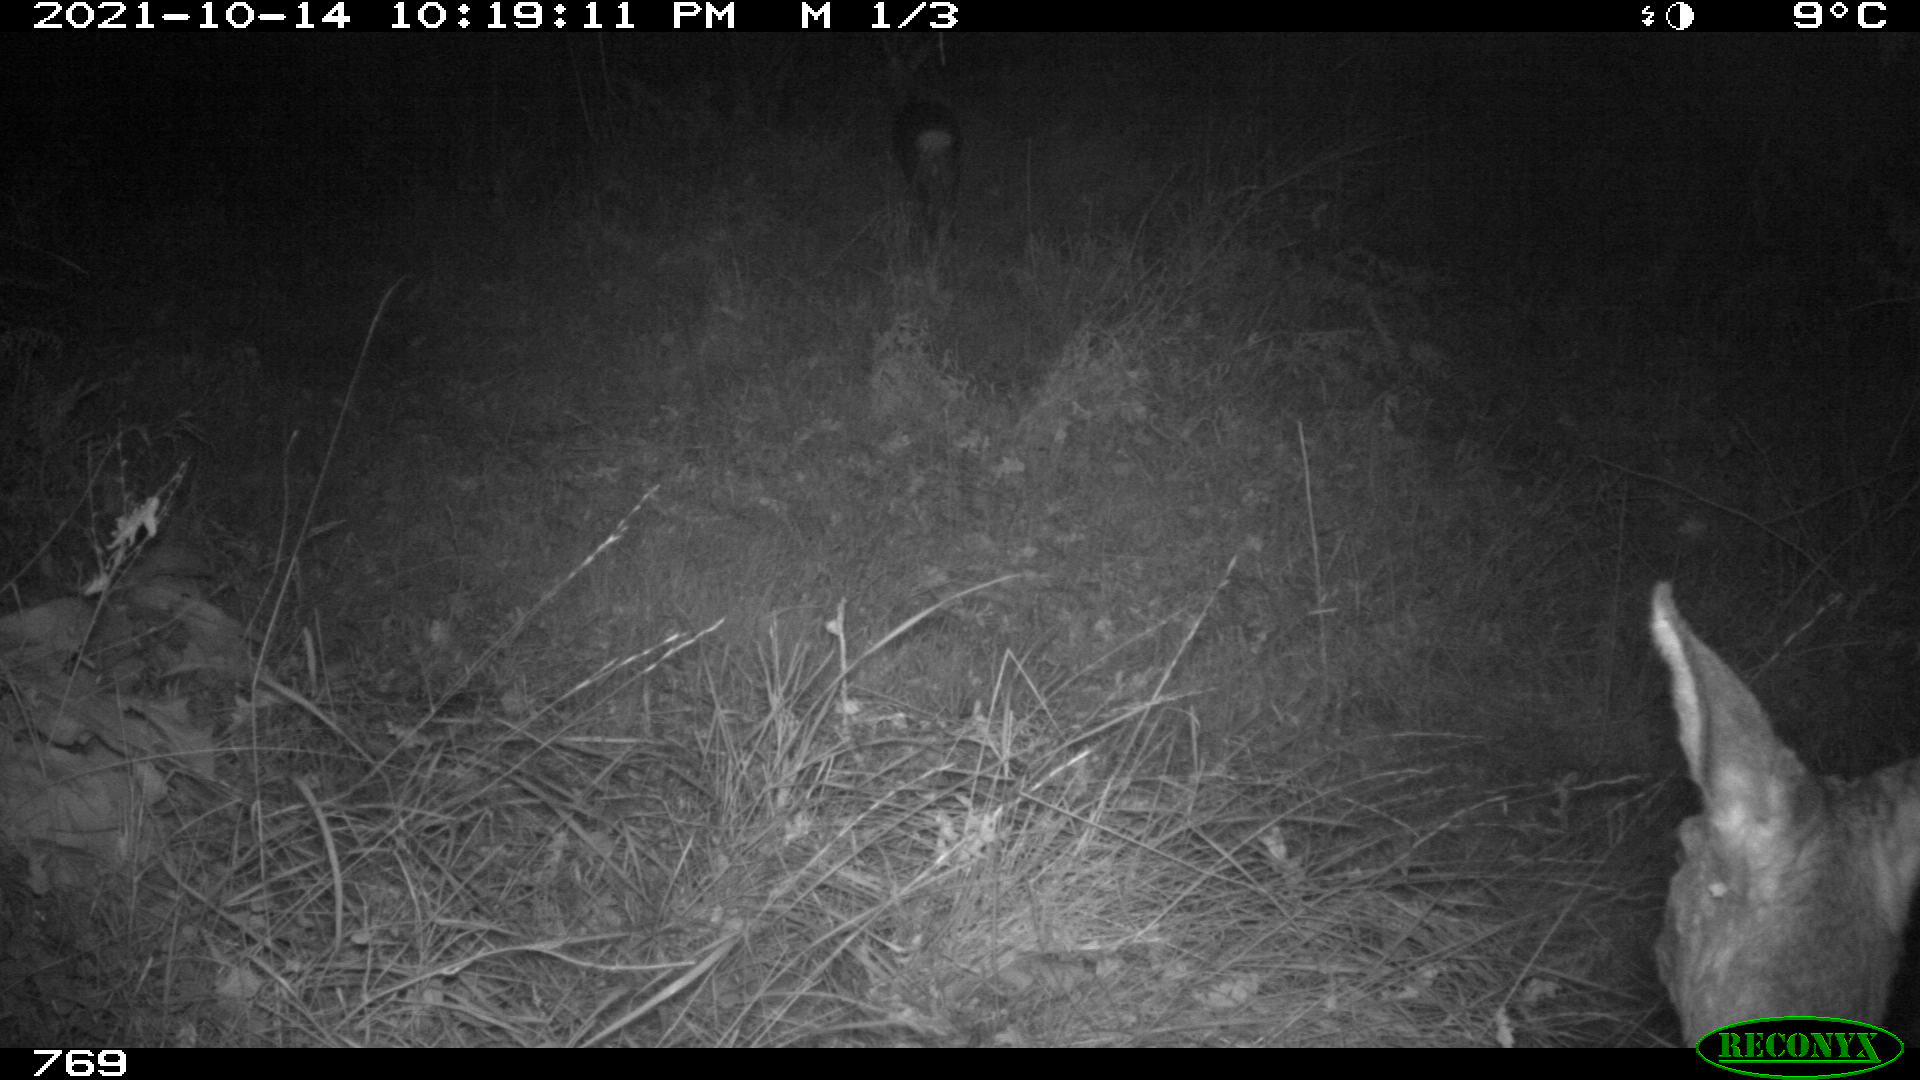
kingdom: Animalia
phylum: Chordata
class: Mammalia
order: Artiodactyla
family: Cervidae
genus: Capreolus
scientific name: Capreolus capreolus
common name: Western roe deer
